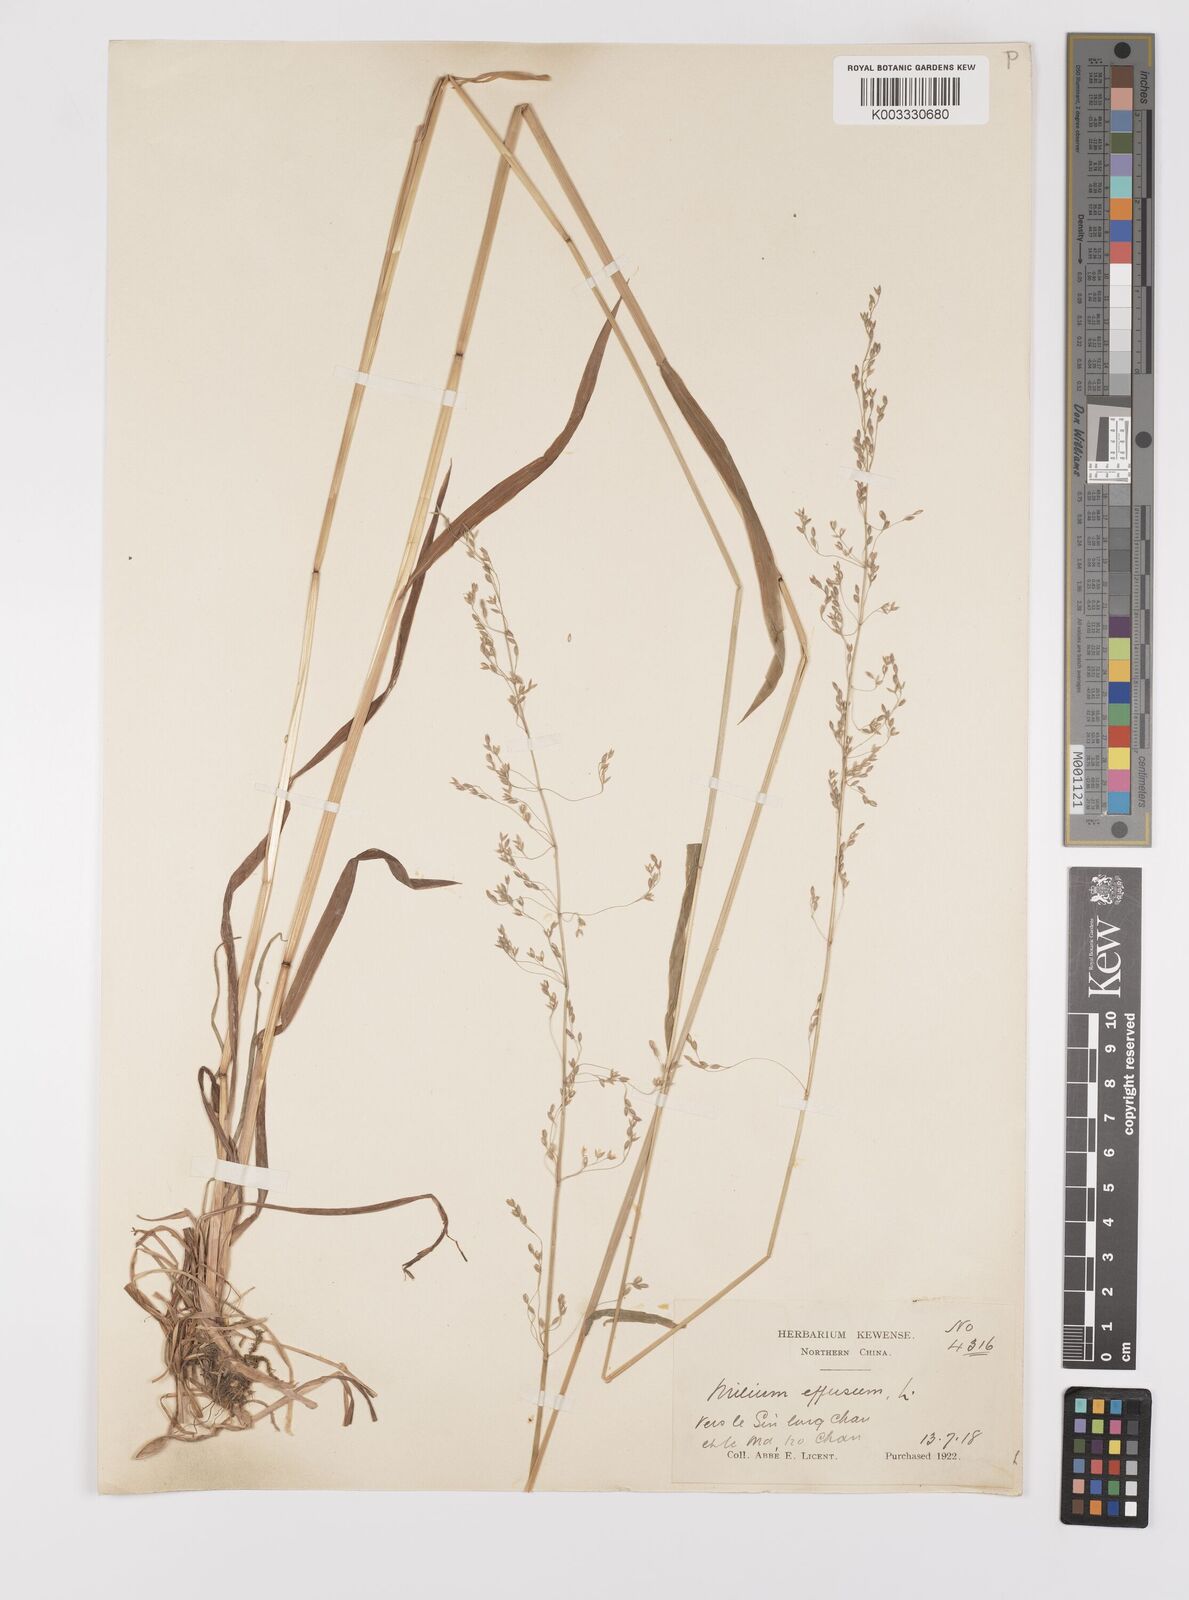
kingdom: Plantae
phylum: Tracheophyta
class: Liliopsida
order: Poales
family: Poaceae
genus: Milium
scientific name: Milium effusum
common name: Wood millet
